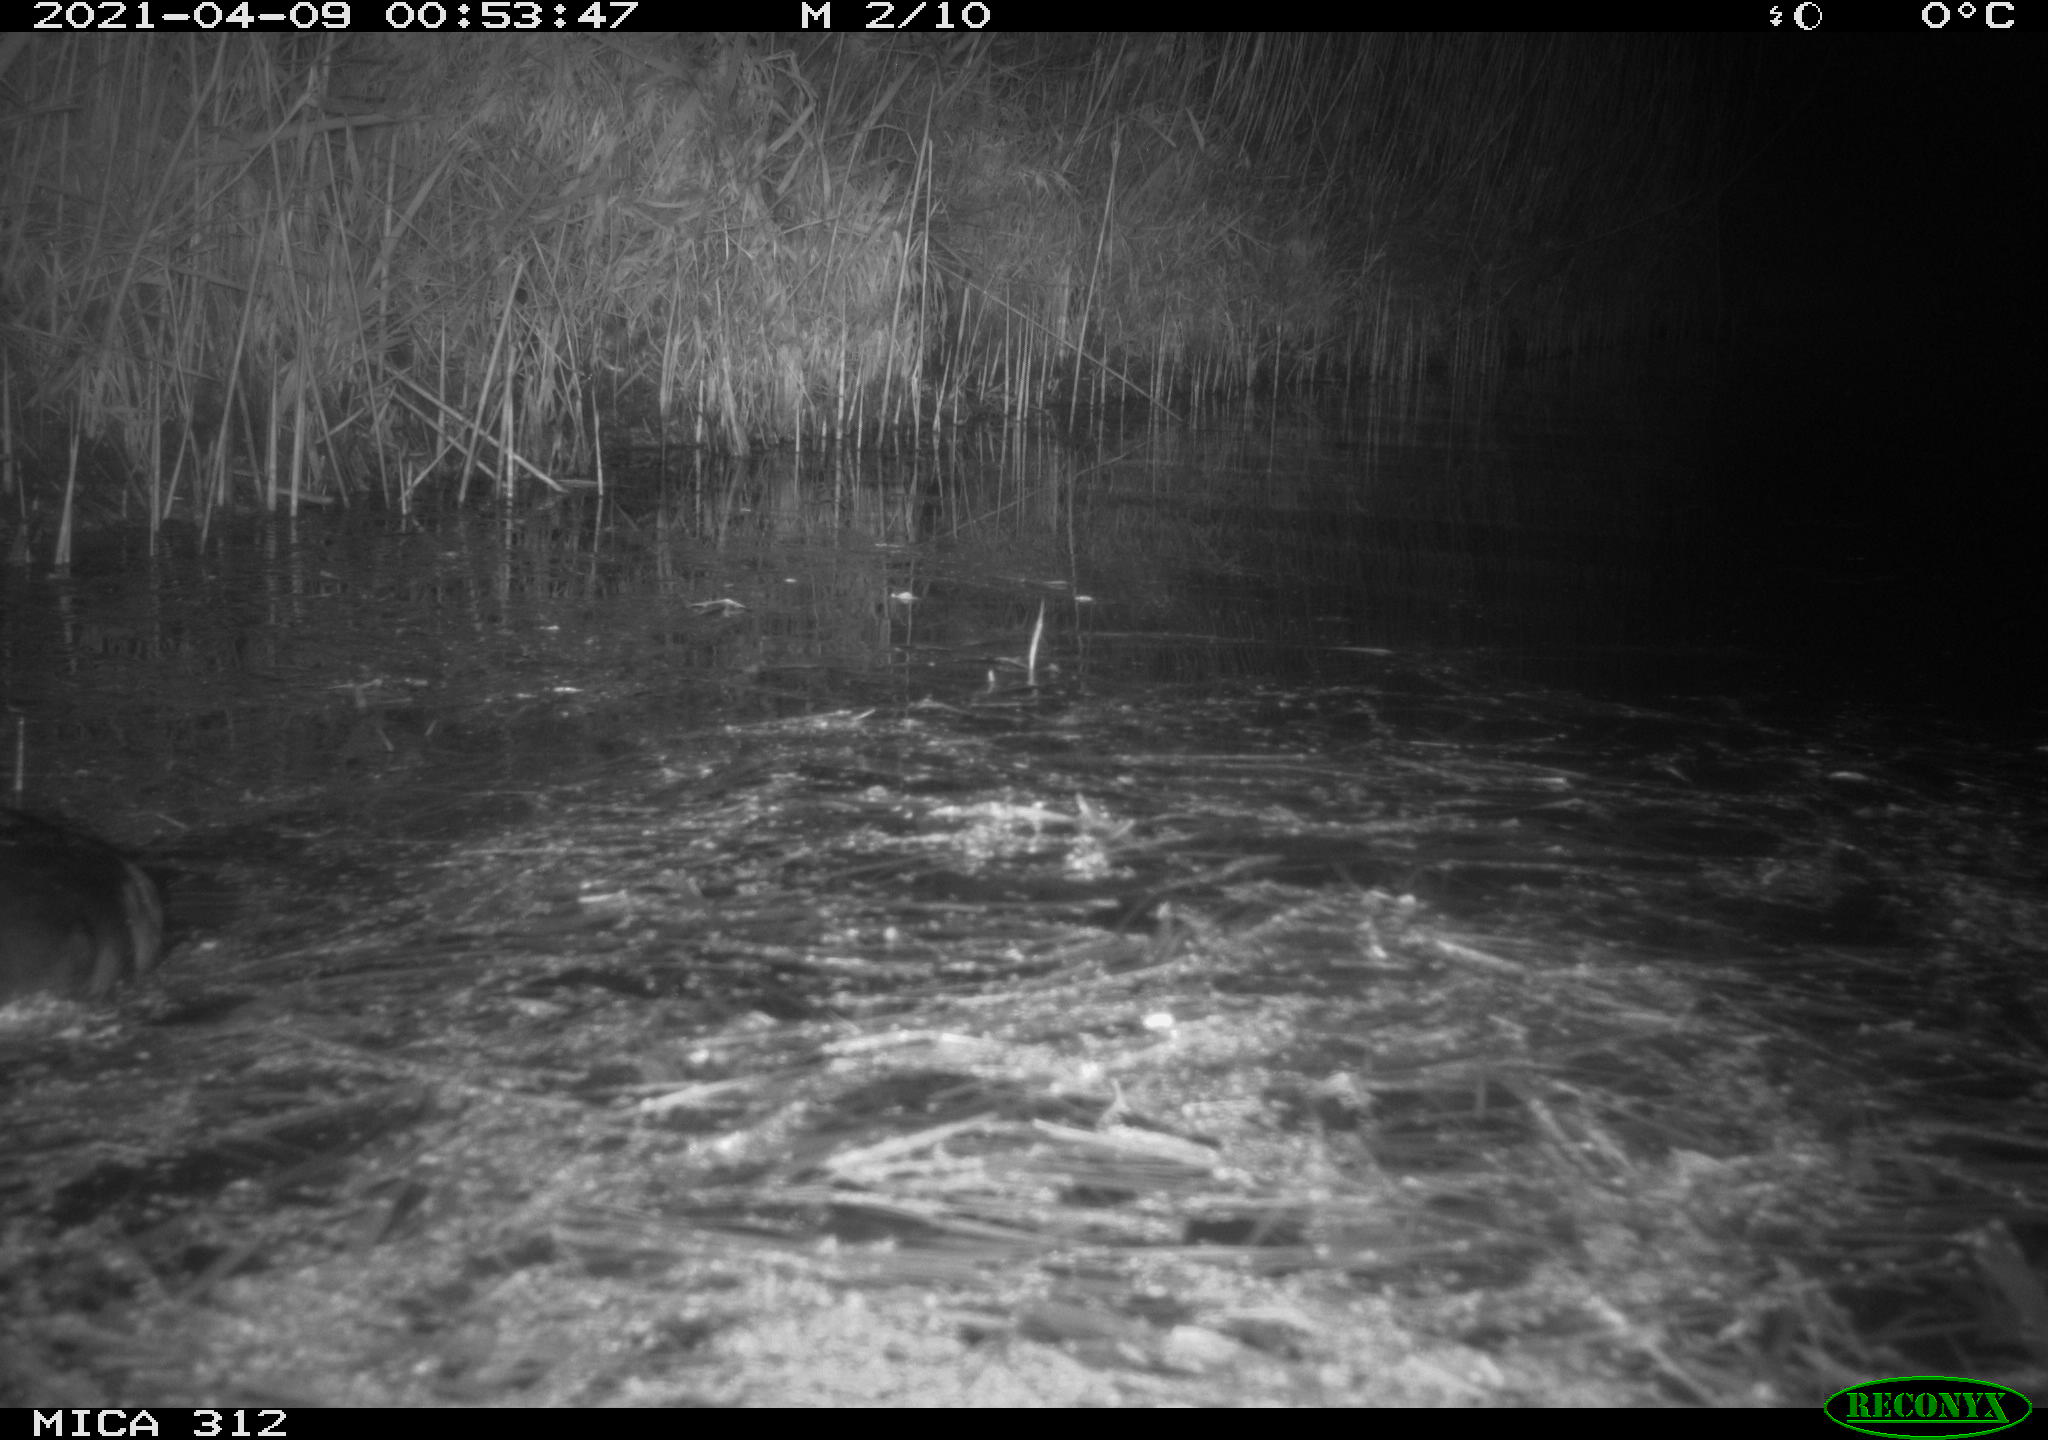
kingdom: Animalia
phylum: Chordata
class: Aves
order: Gruiformes
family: Rallidae
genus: Fulica
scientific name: Fulica atra
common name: Eurasian coot
